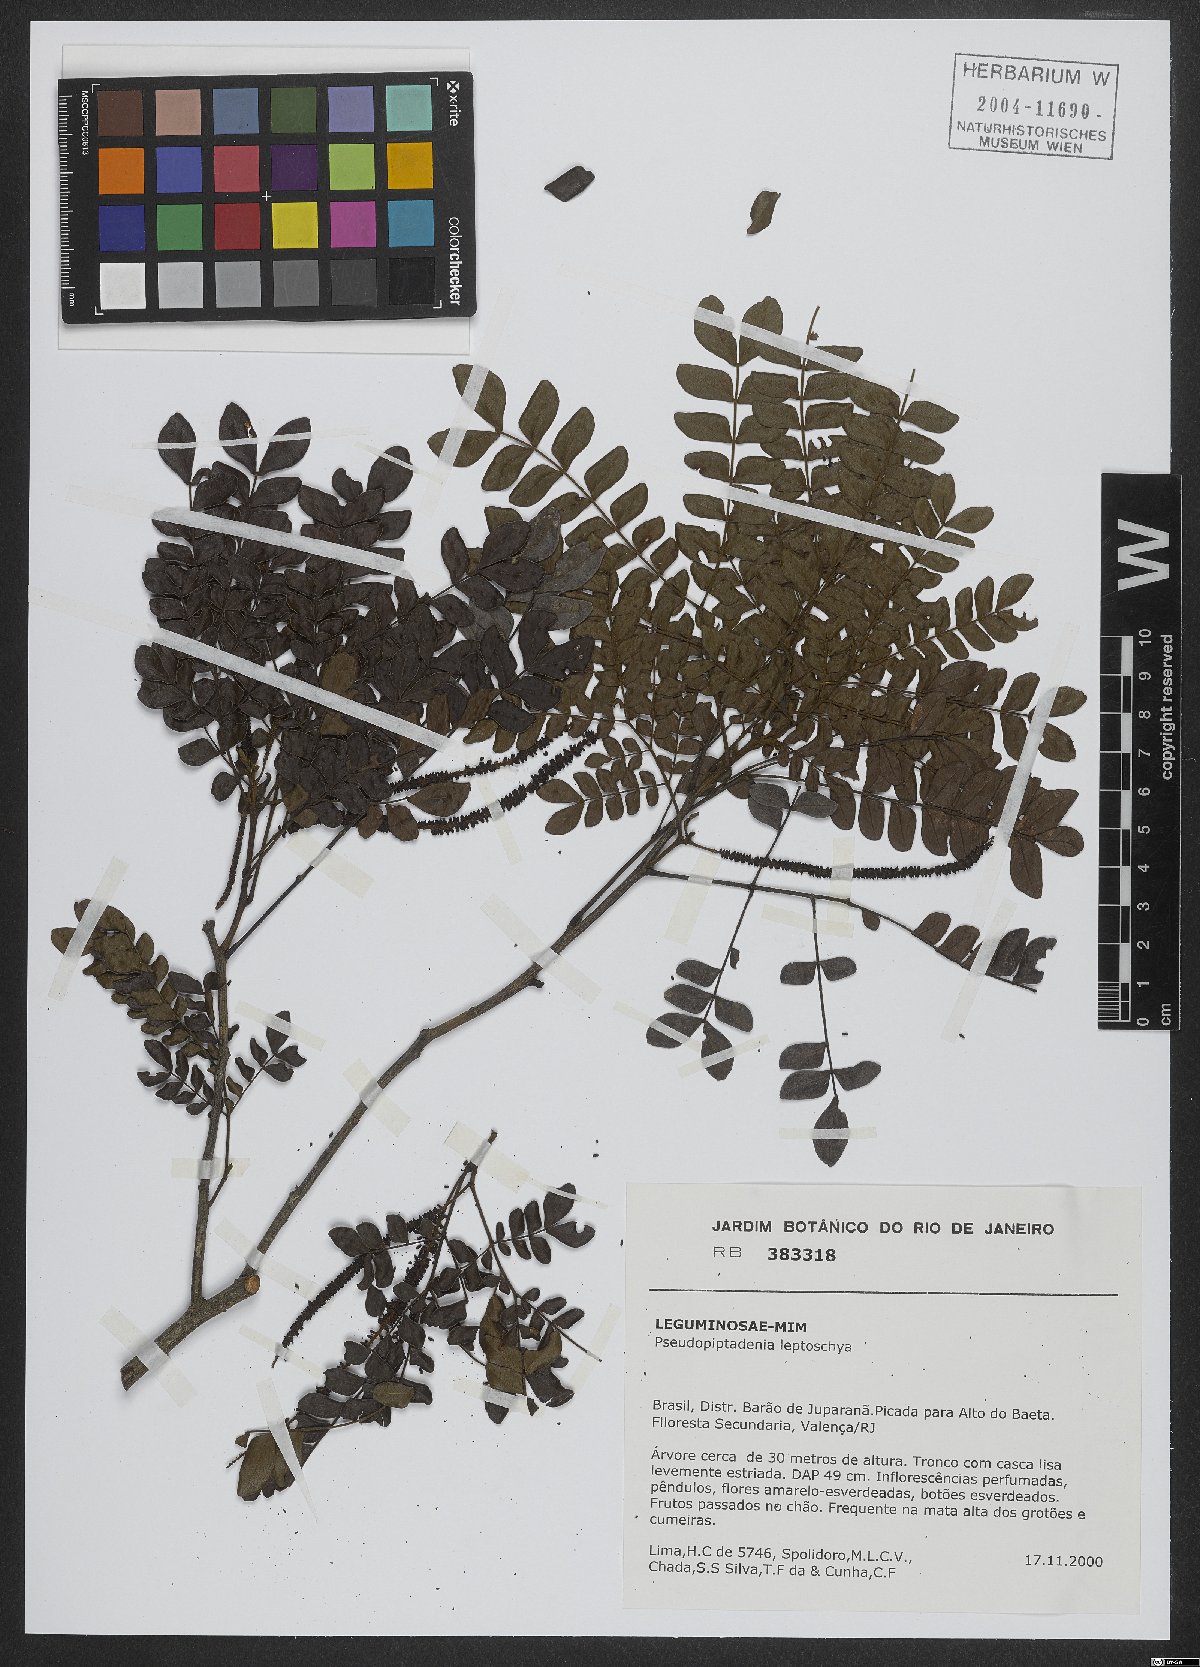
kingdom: Plantae
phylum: Tracheophyta
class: Magnoliopsida
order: Fabales
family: Fabaceae
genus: Pseudopiptadenia
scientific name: Pseudopiptadenia leptostachya
